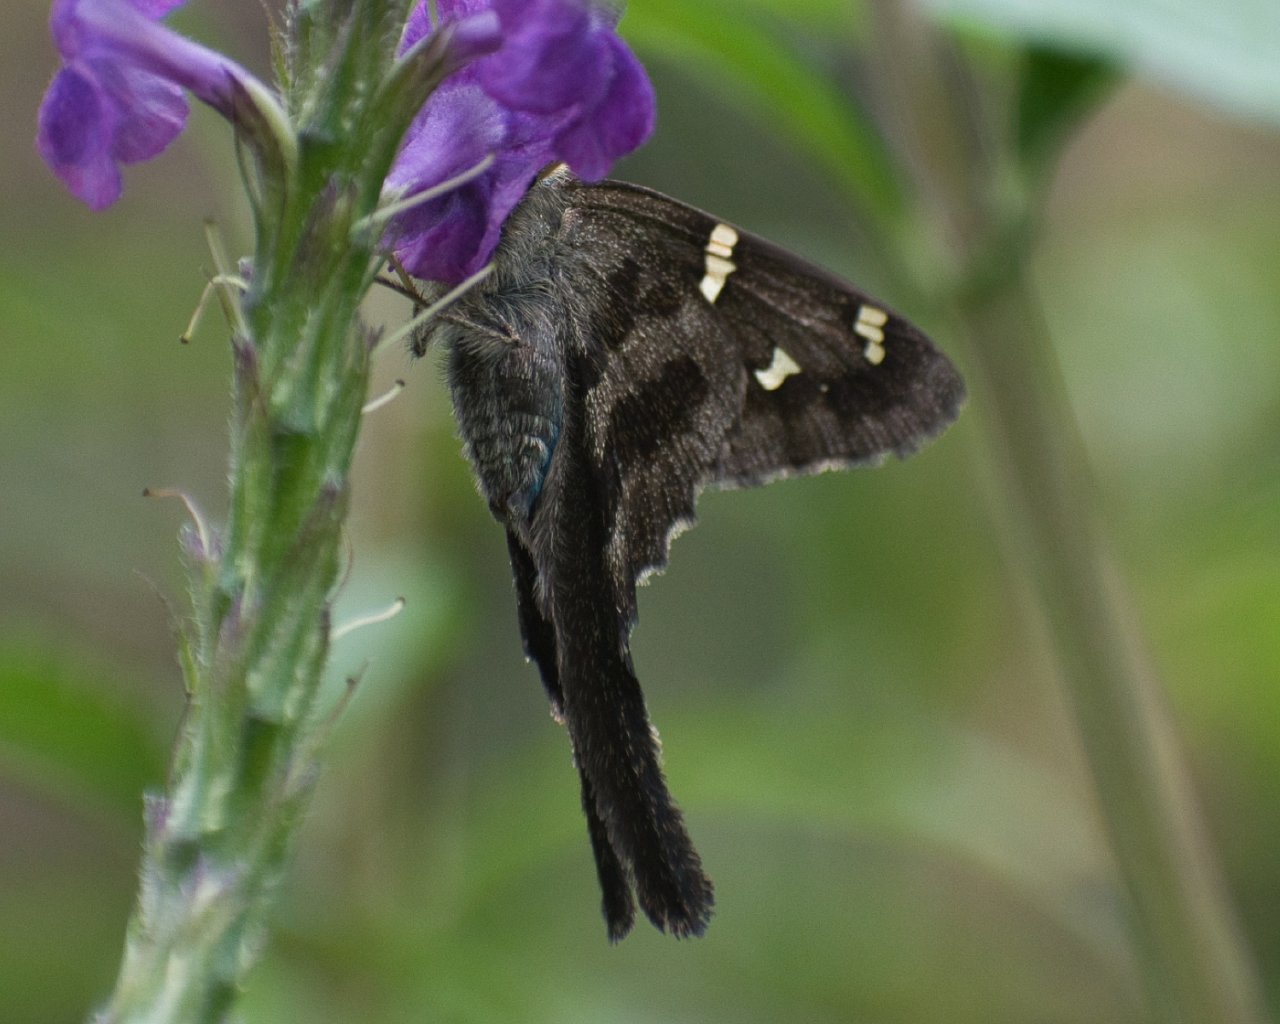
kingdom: Animalia
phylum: Arthropoda
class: Insecta
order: Lepidoptera
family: Hesperiidae
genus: Urbanus
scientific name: Urbanus viterboana
